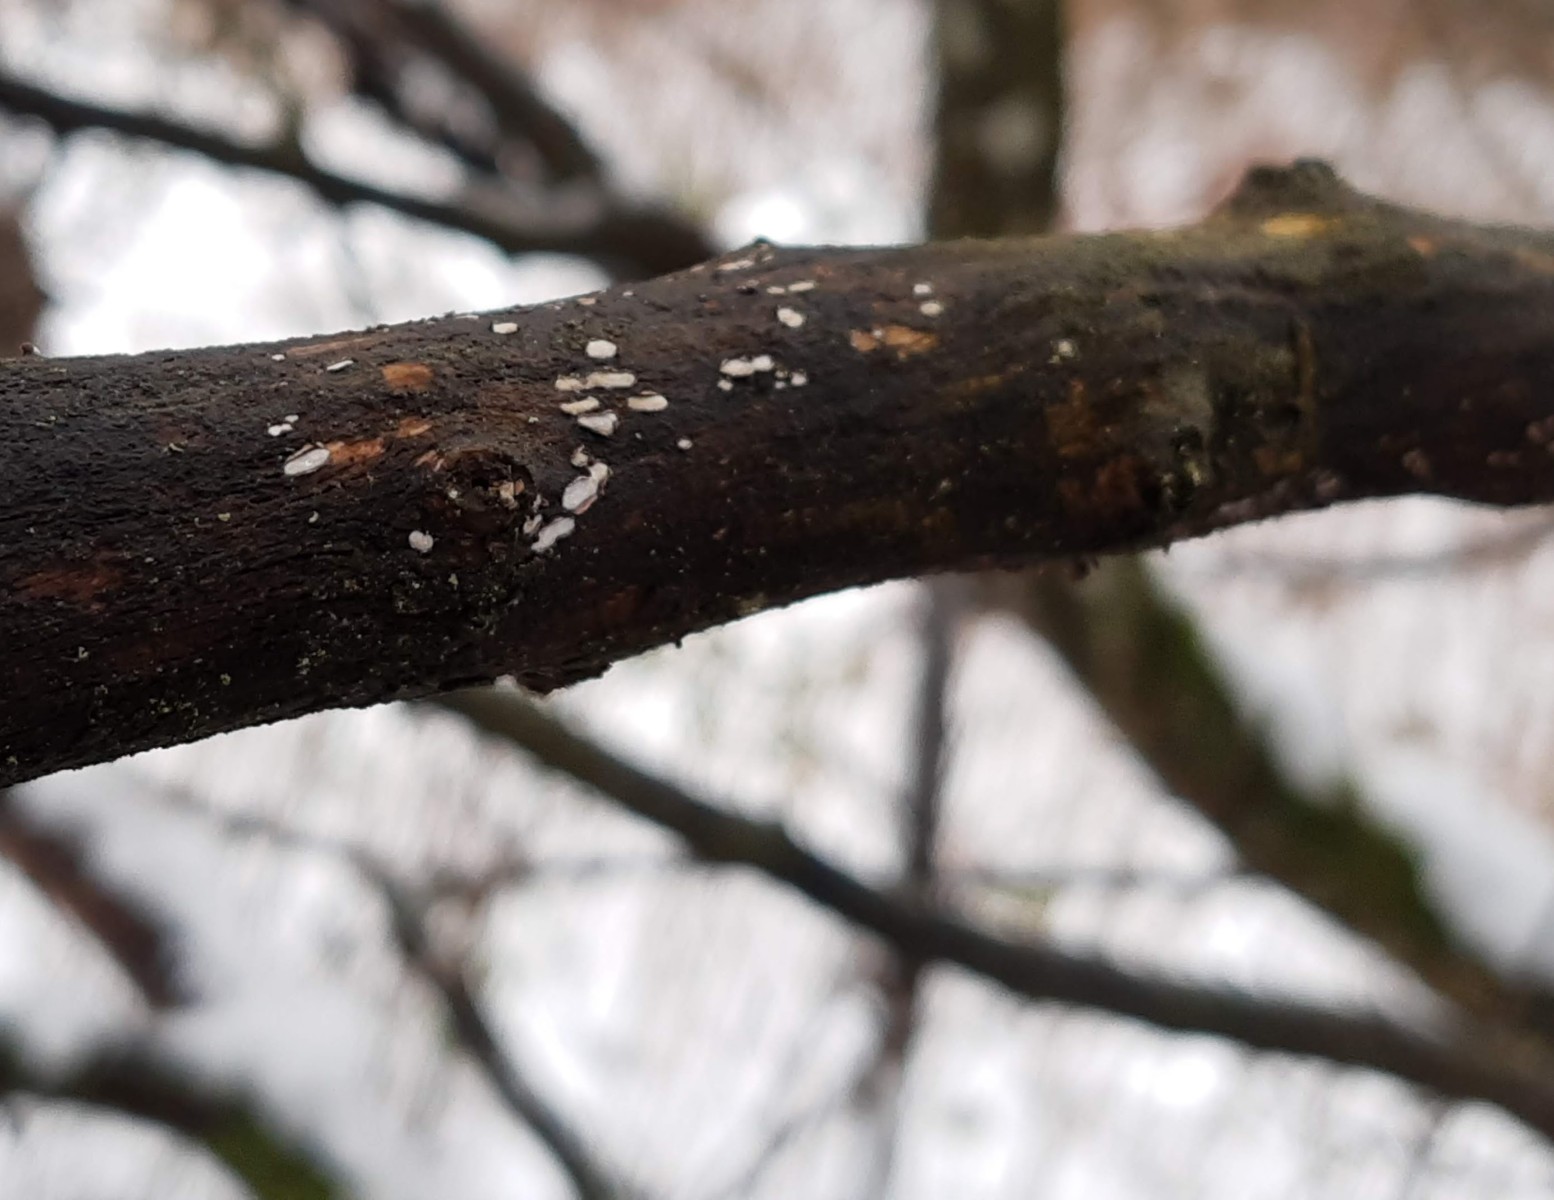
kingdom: Fungi
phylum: Ascomycota
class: Leotiomycetes
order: Chaetomellales
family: Marthamycetaceae
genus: Propolis
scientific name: Propolis farinosa
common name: almindelig vedsprængerskive
